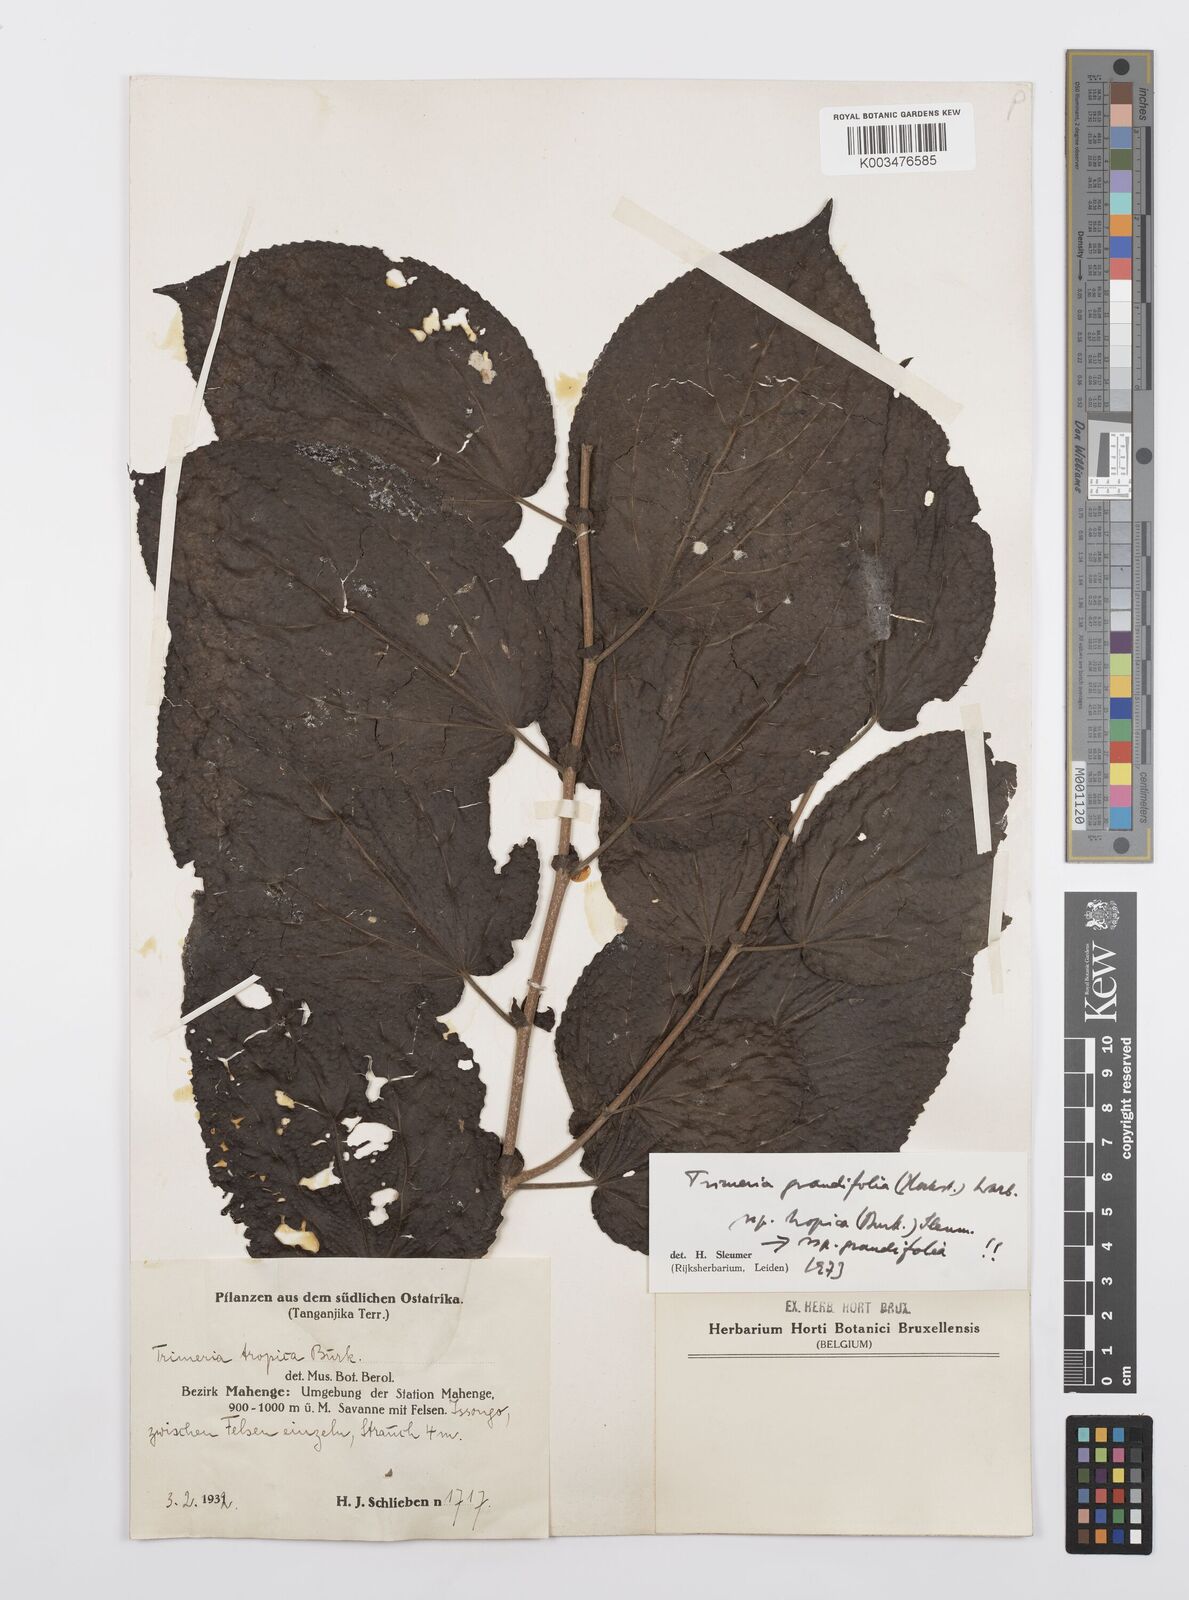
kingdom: Plantae
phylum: Tracheophyta
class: Magnoliopsida
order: Malpighiales
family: Salicaceae
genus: Trimeria
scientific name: Trimeria grandifolia
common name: Wild mulberry
